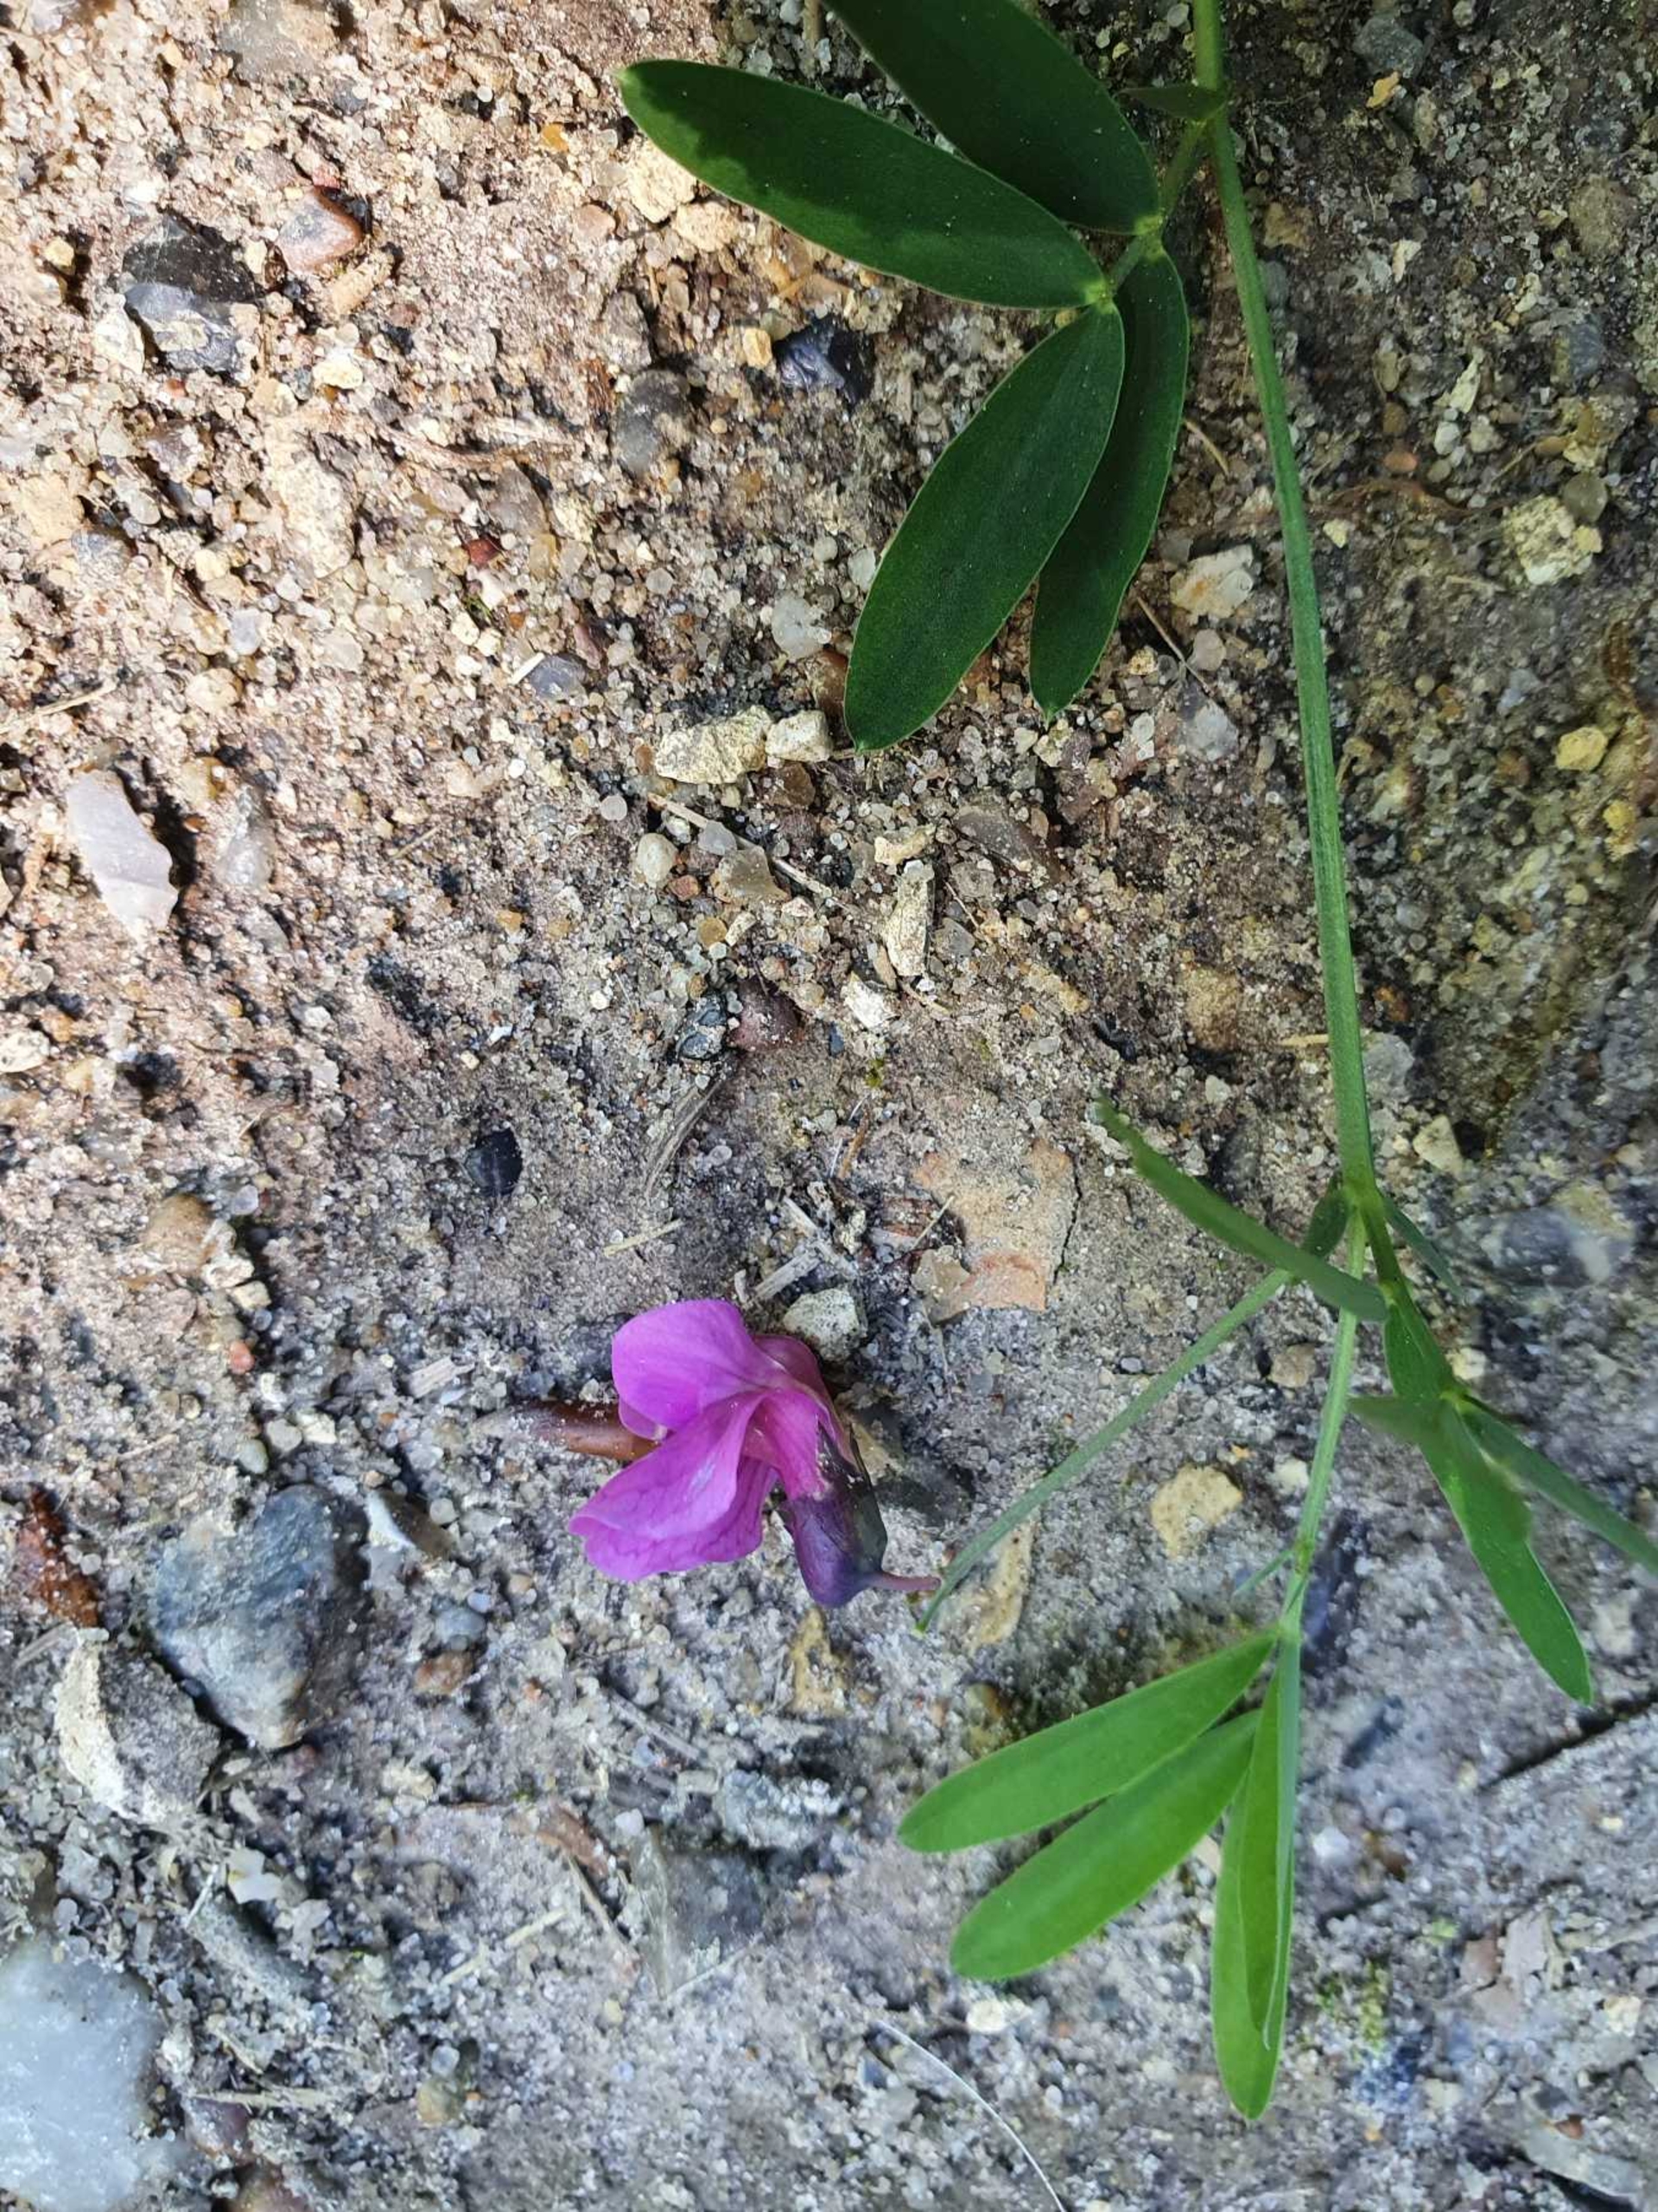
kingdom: Plantae
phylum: Tracheophyta
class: Magnoliopsida
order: Fabales
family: Fabaceae
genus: Lathyrus
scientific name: Lathyrus linifolius
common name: Krat-fladbælg
